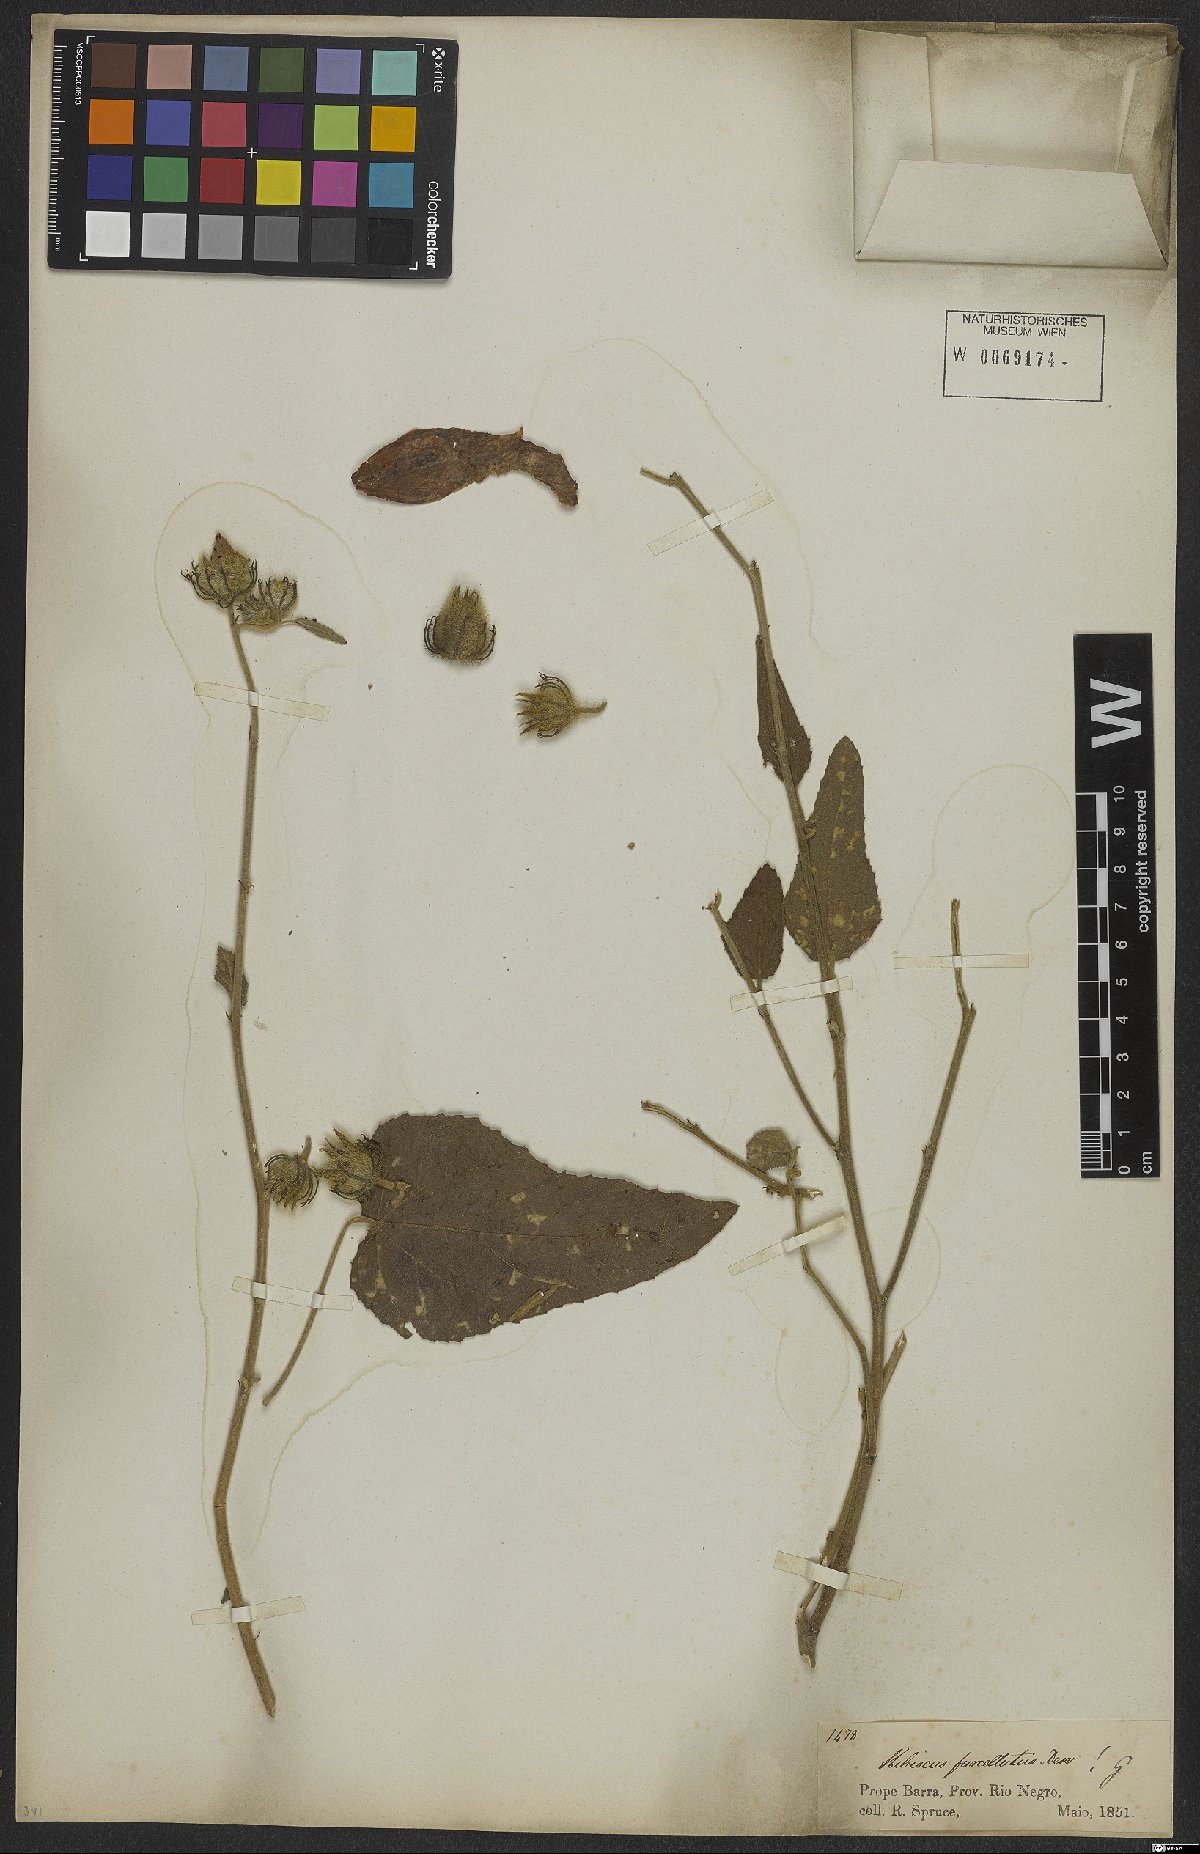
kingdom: Plantae
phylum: Tracheophyta
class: Magnoliopsida
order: Malvales
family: Malvaceae
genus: Hibiscus
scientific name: Hibiscus furcellatus
